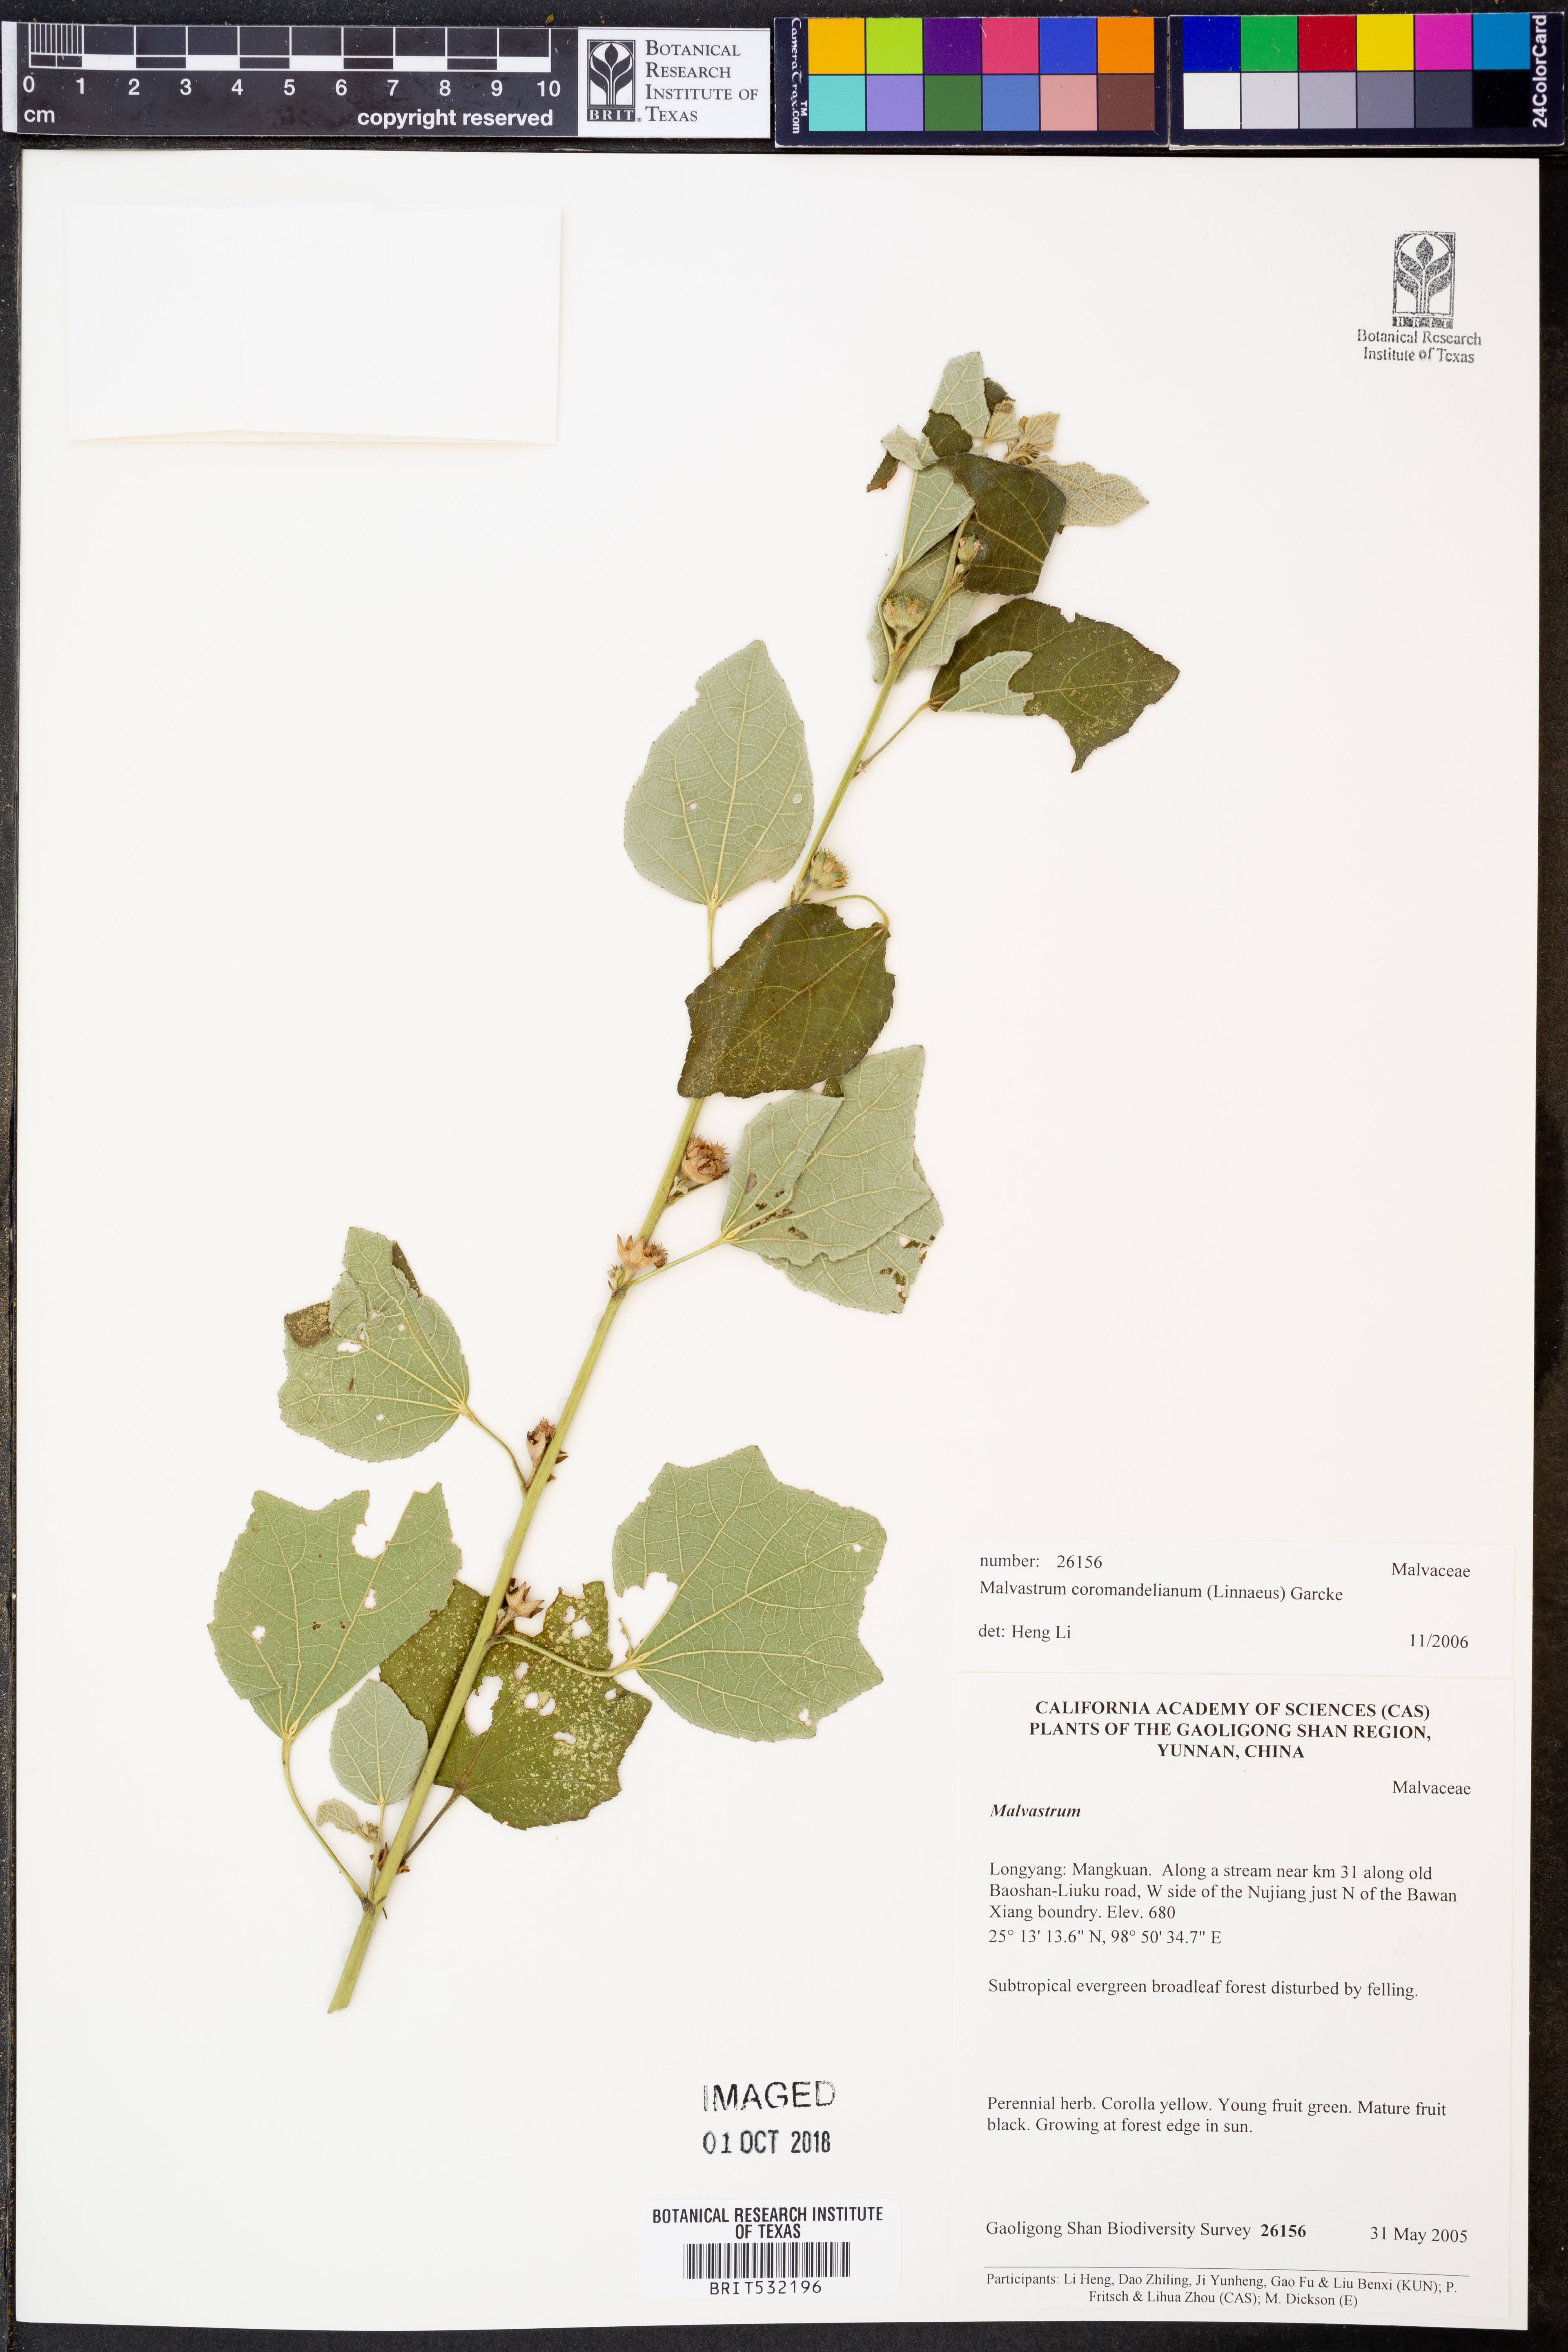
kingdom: Plantae
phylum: Tracheophyta
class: Magnoliopsida
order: Malvales
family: Malvaceae
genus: Malvastrum
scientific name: Malvastrum coromandelianum
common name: Threelobe false mallow
